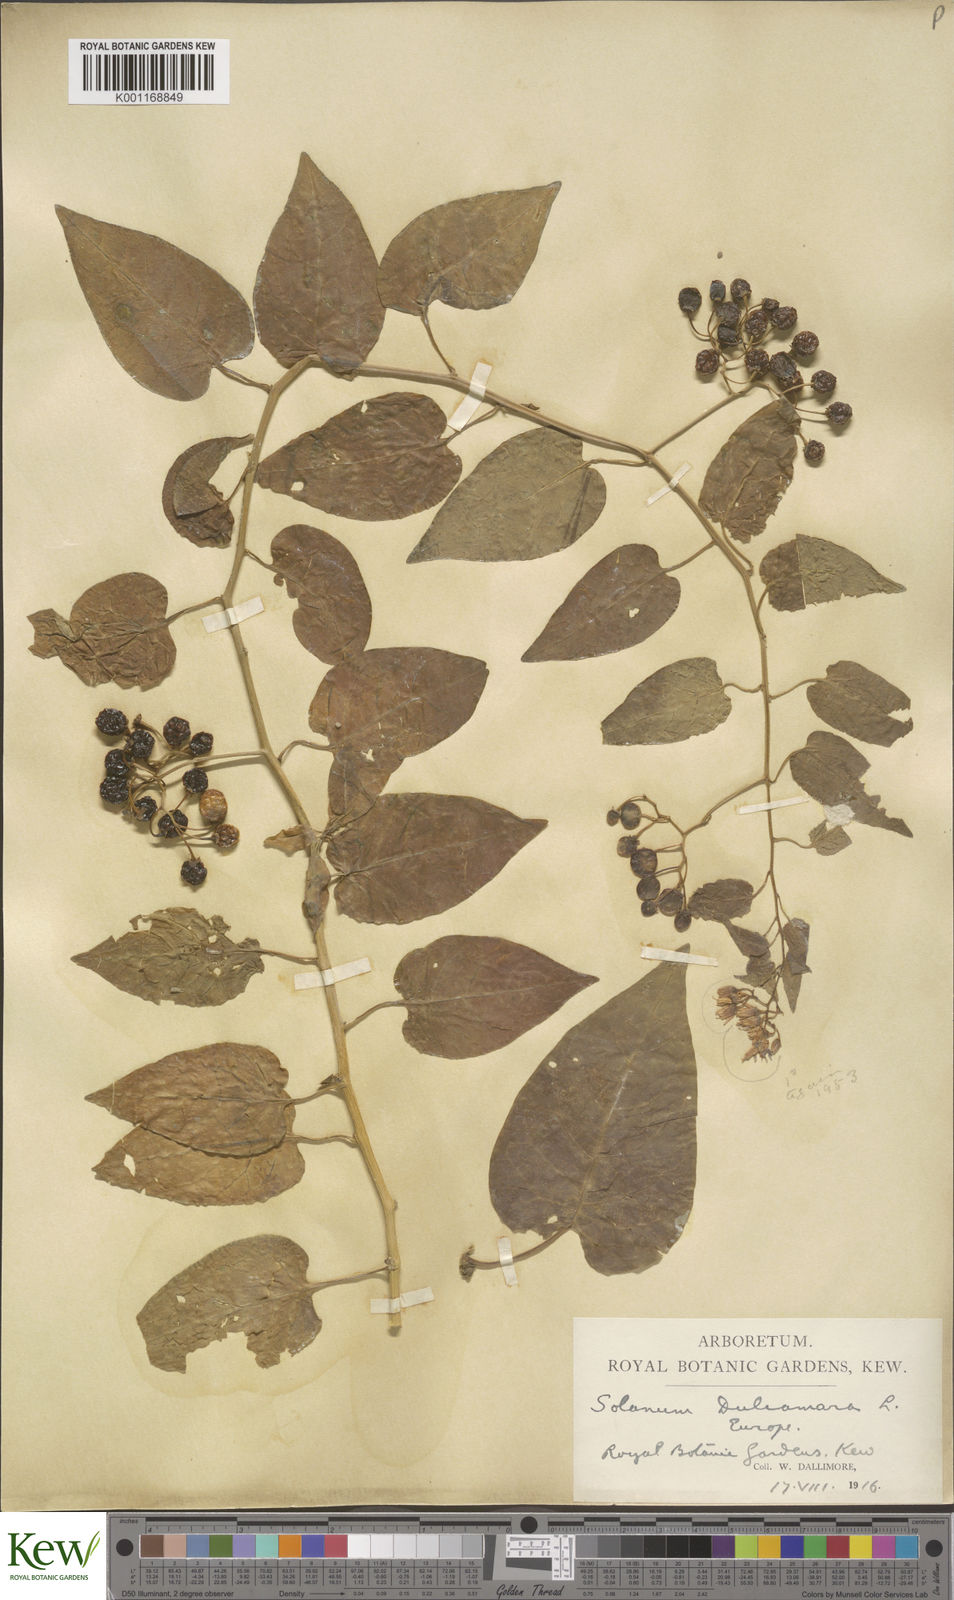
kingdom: Plantae
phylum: Tracheophyta
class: Magnoliopsida
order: Solanales
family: Solanaceae
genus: Solanum
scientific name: Solanum dulcamara
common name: Climbing nightshade
